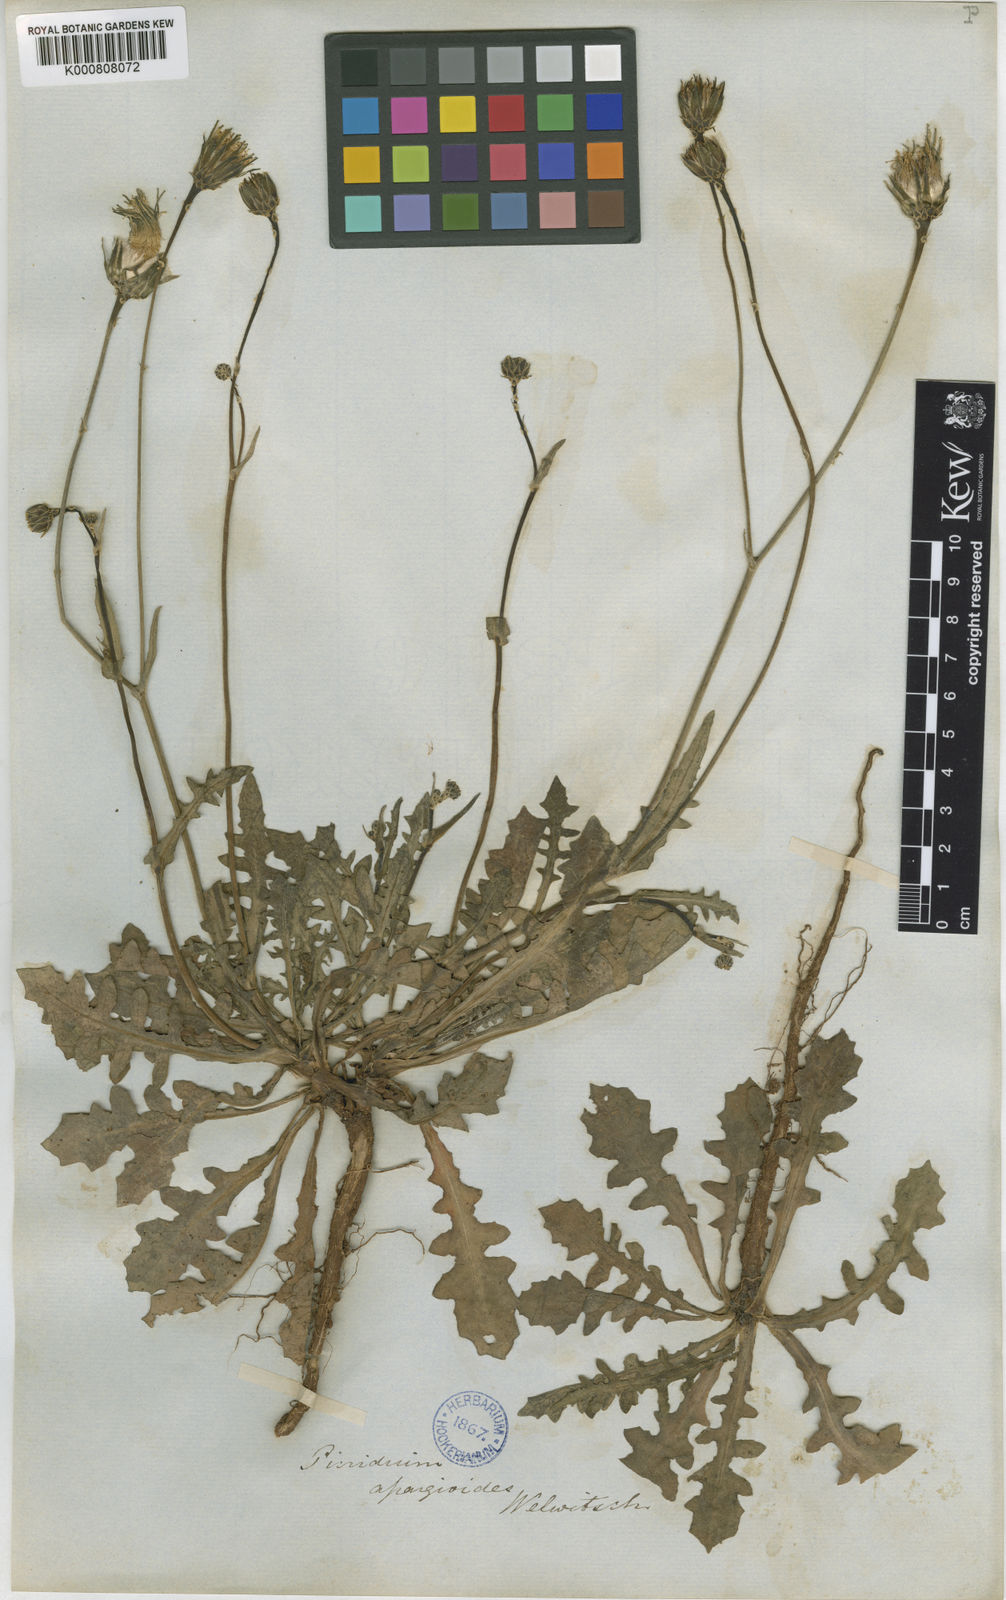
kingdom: Plantae
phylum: Tracheophyta
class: Magnoliopsida
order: Asterales
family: Asteraceae
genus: Reichardia
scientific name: Reichardia intermedia
